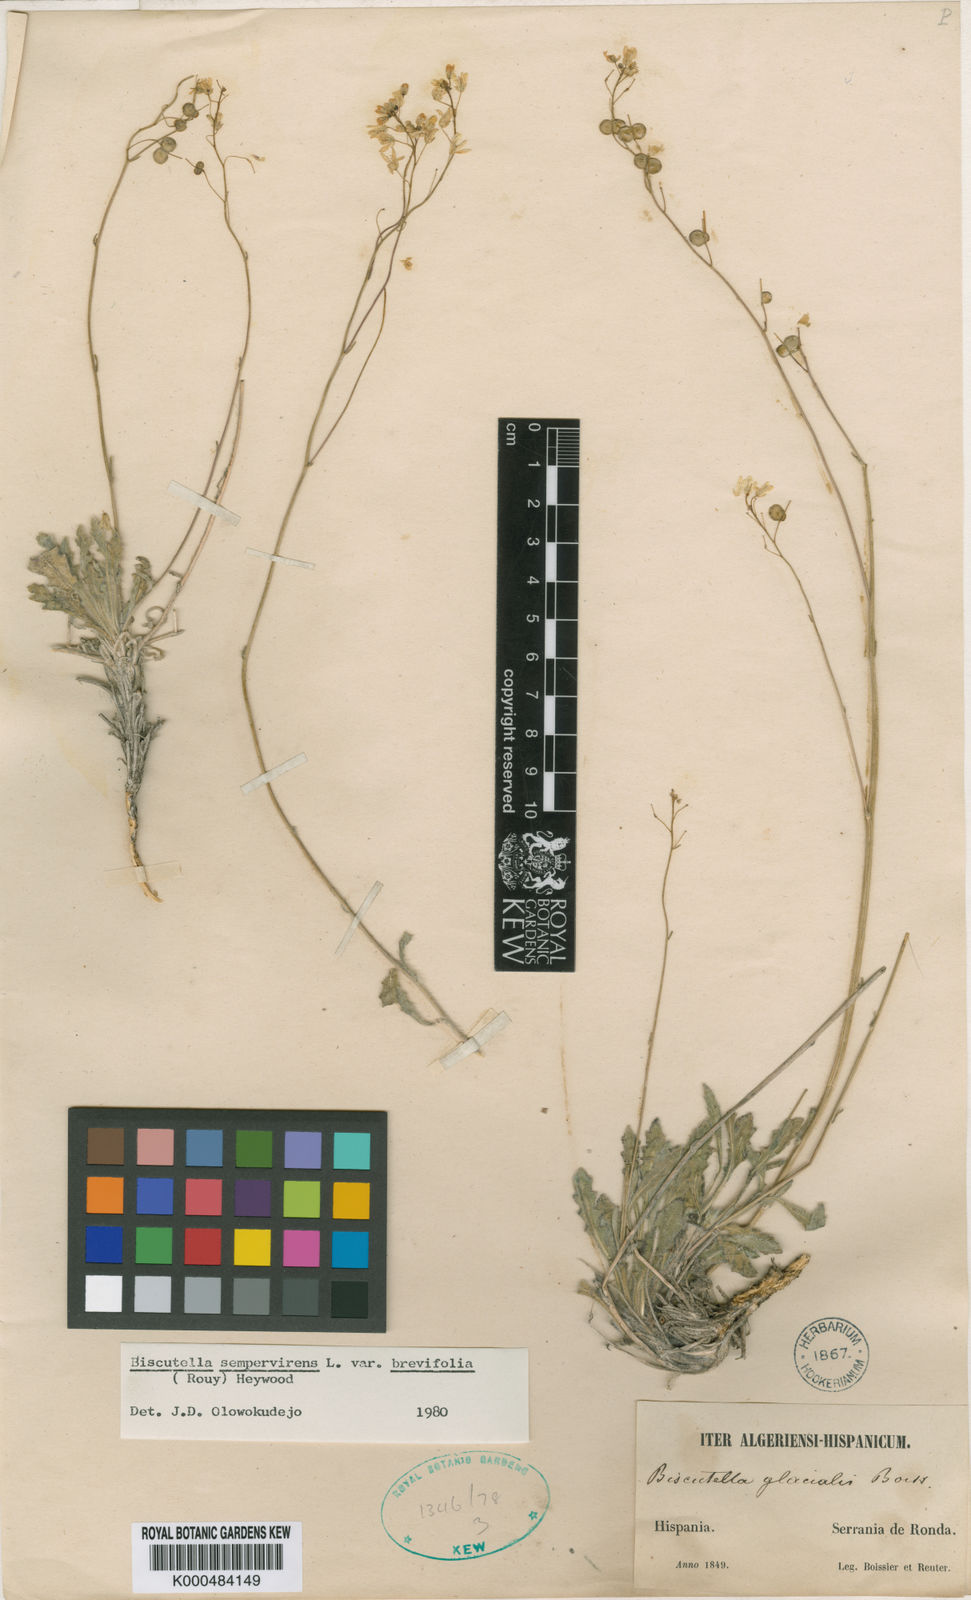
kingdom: Plantae
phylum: Tracheophyta
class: Magnoliopsida
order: Brassicales
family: Brassicaceae
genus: Biscutella
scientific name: Biscutella sempervirens
